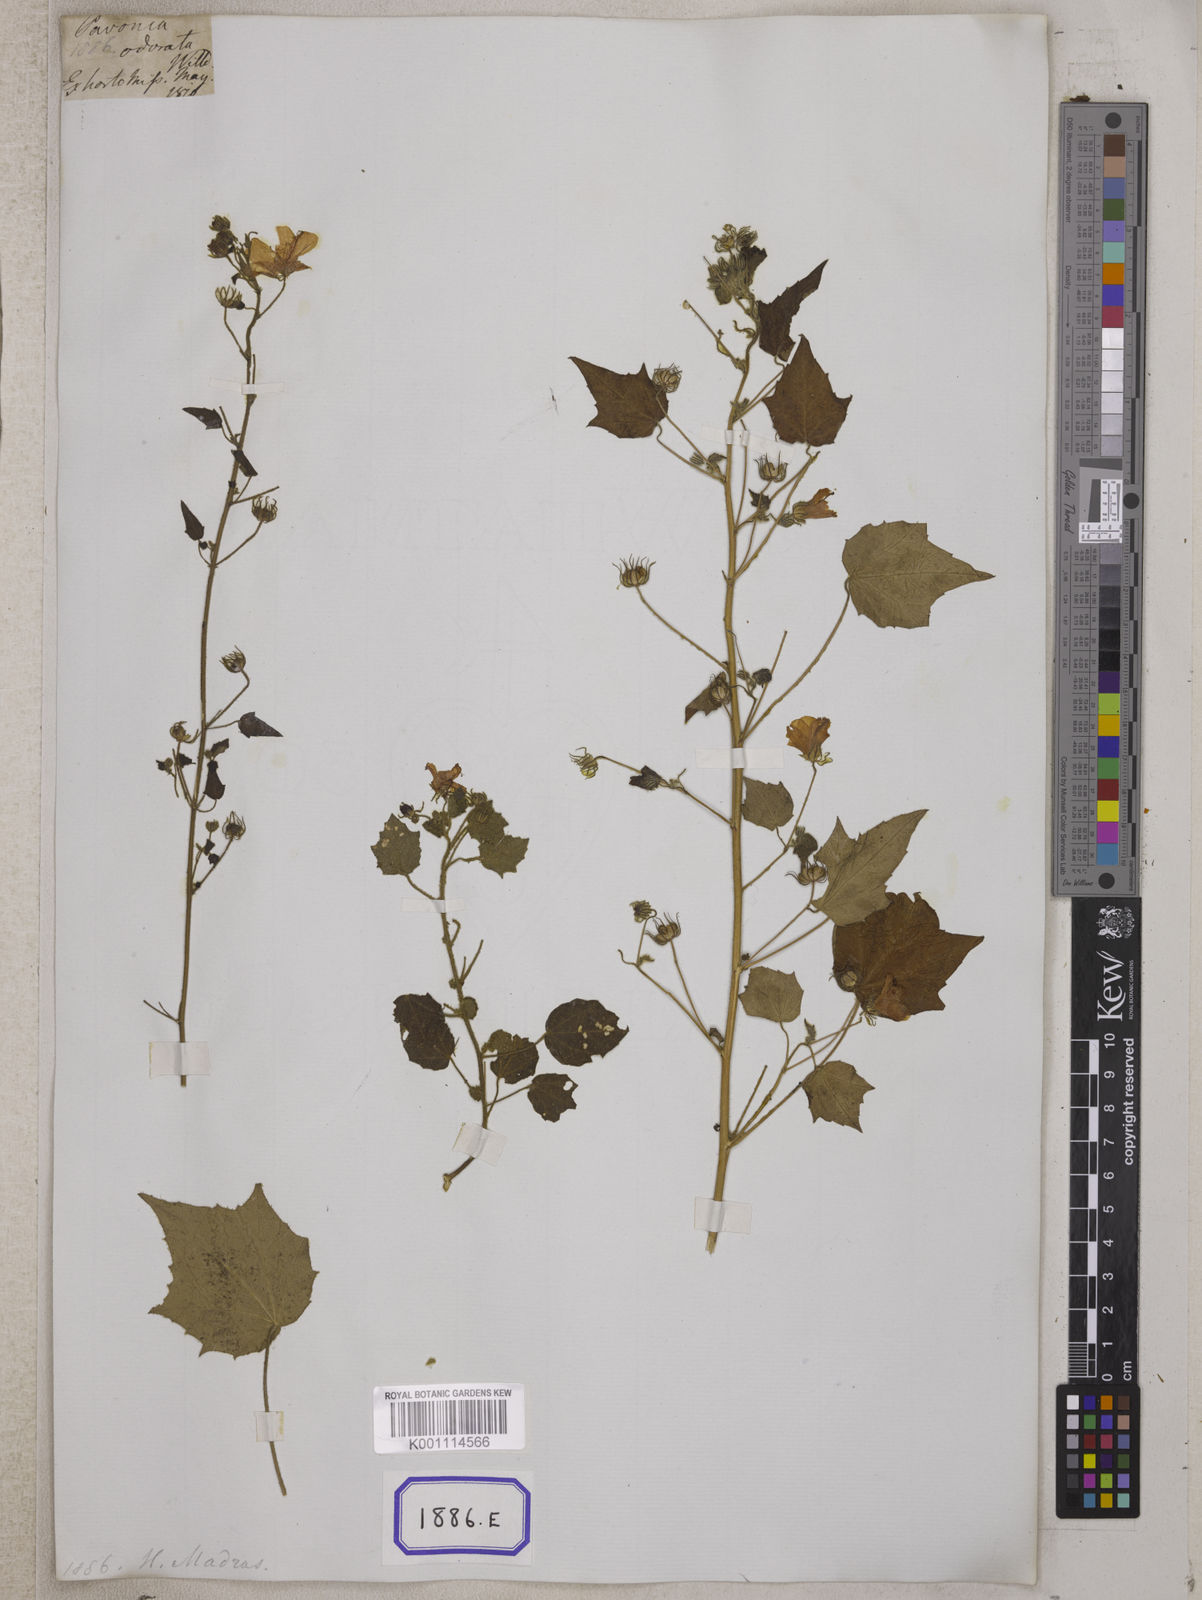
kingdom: Plantae
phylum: Tracheophyta
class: Magnoliopsida
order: Malvales
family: Malvaceae
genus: Pavonia
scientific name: Pavonia zeylonica
